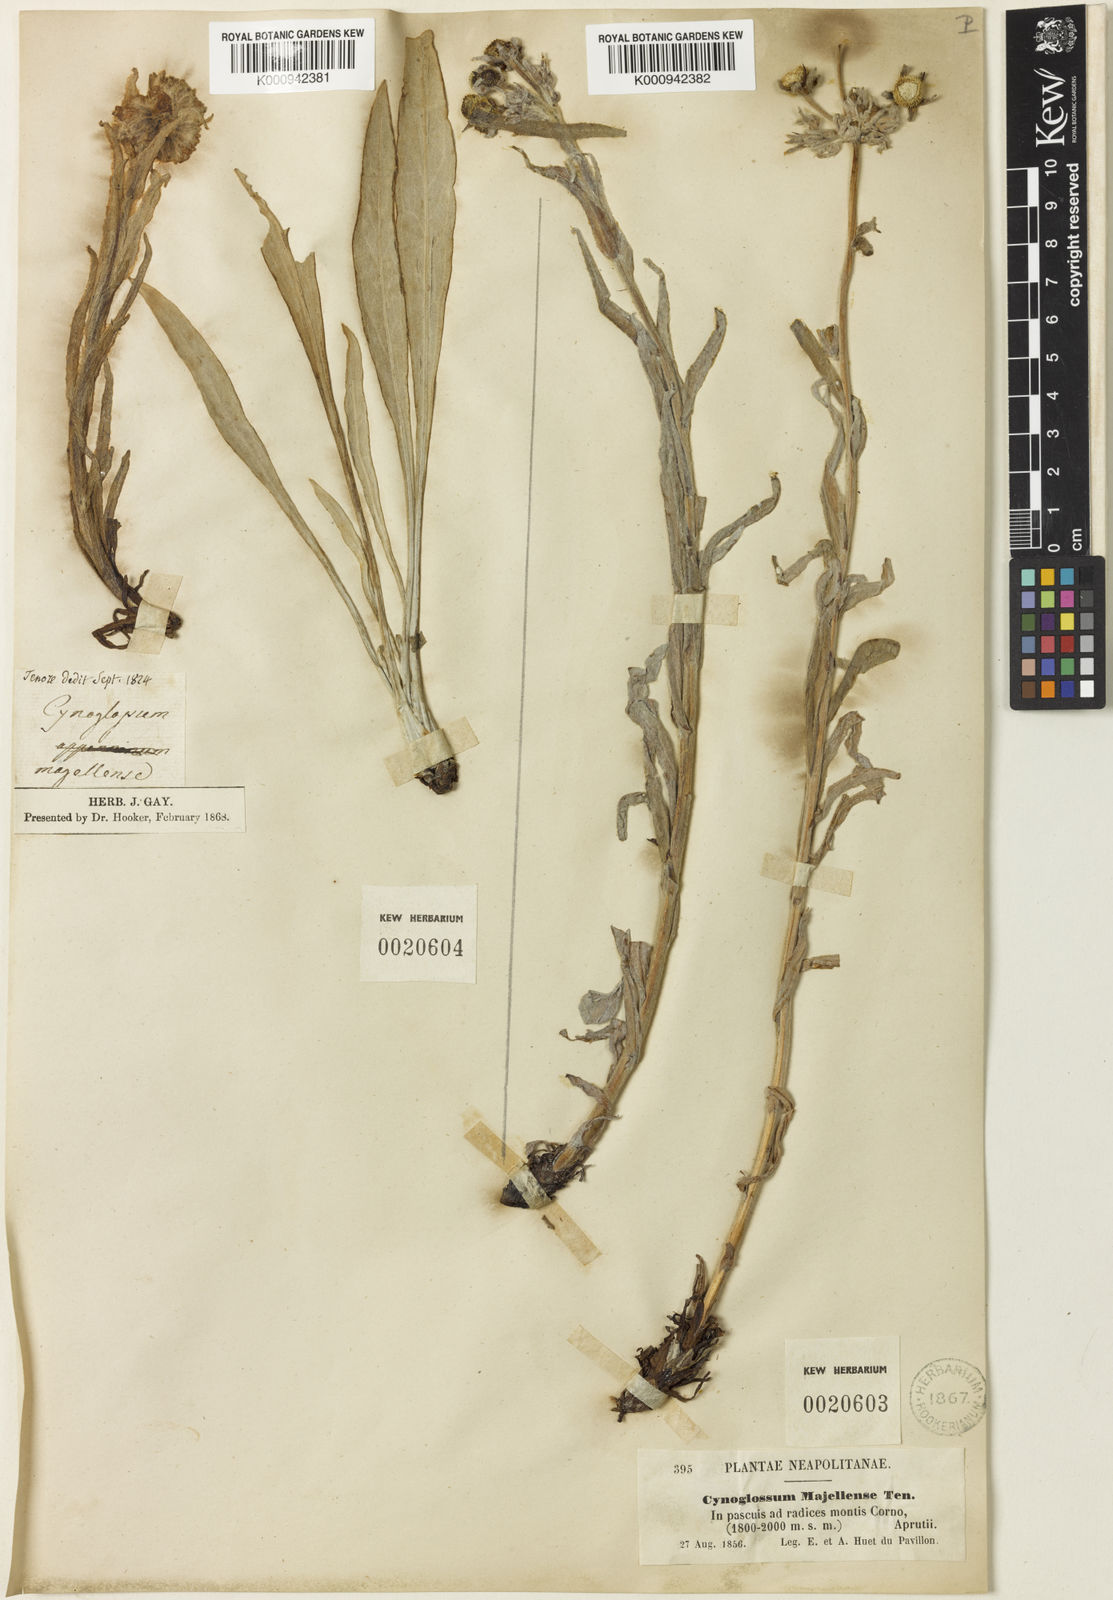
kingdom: Plantae
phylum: Tracheophyta
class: Magnoliopsida
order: Boraginales
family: Boraginaceae
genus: Rindera
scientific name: Rindera magellensis
